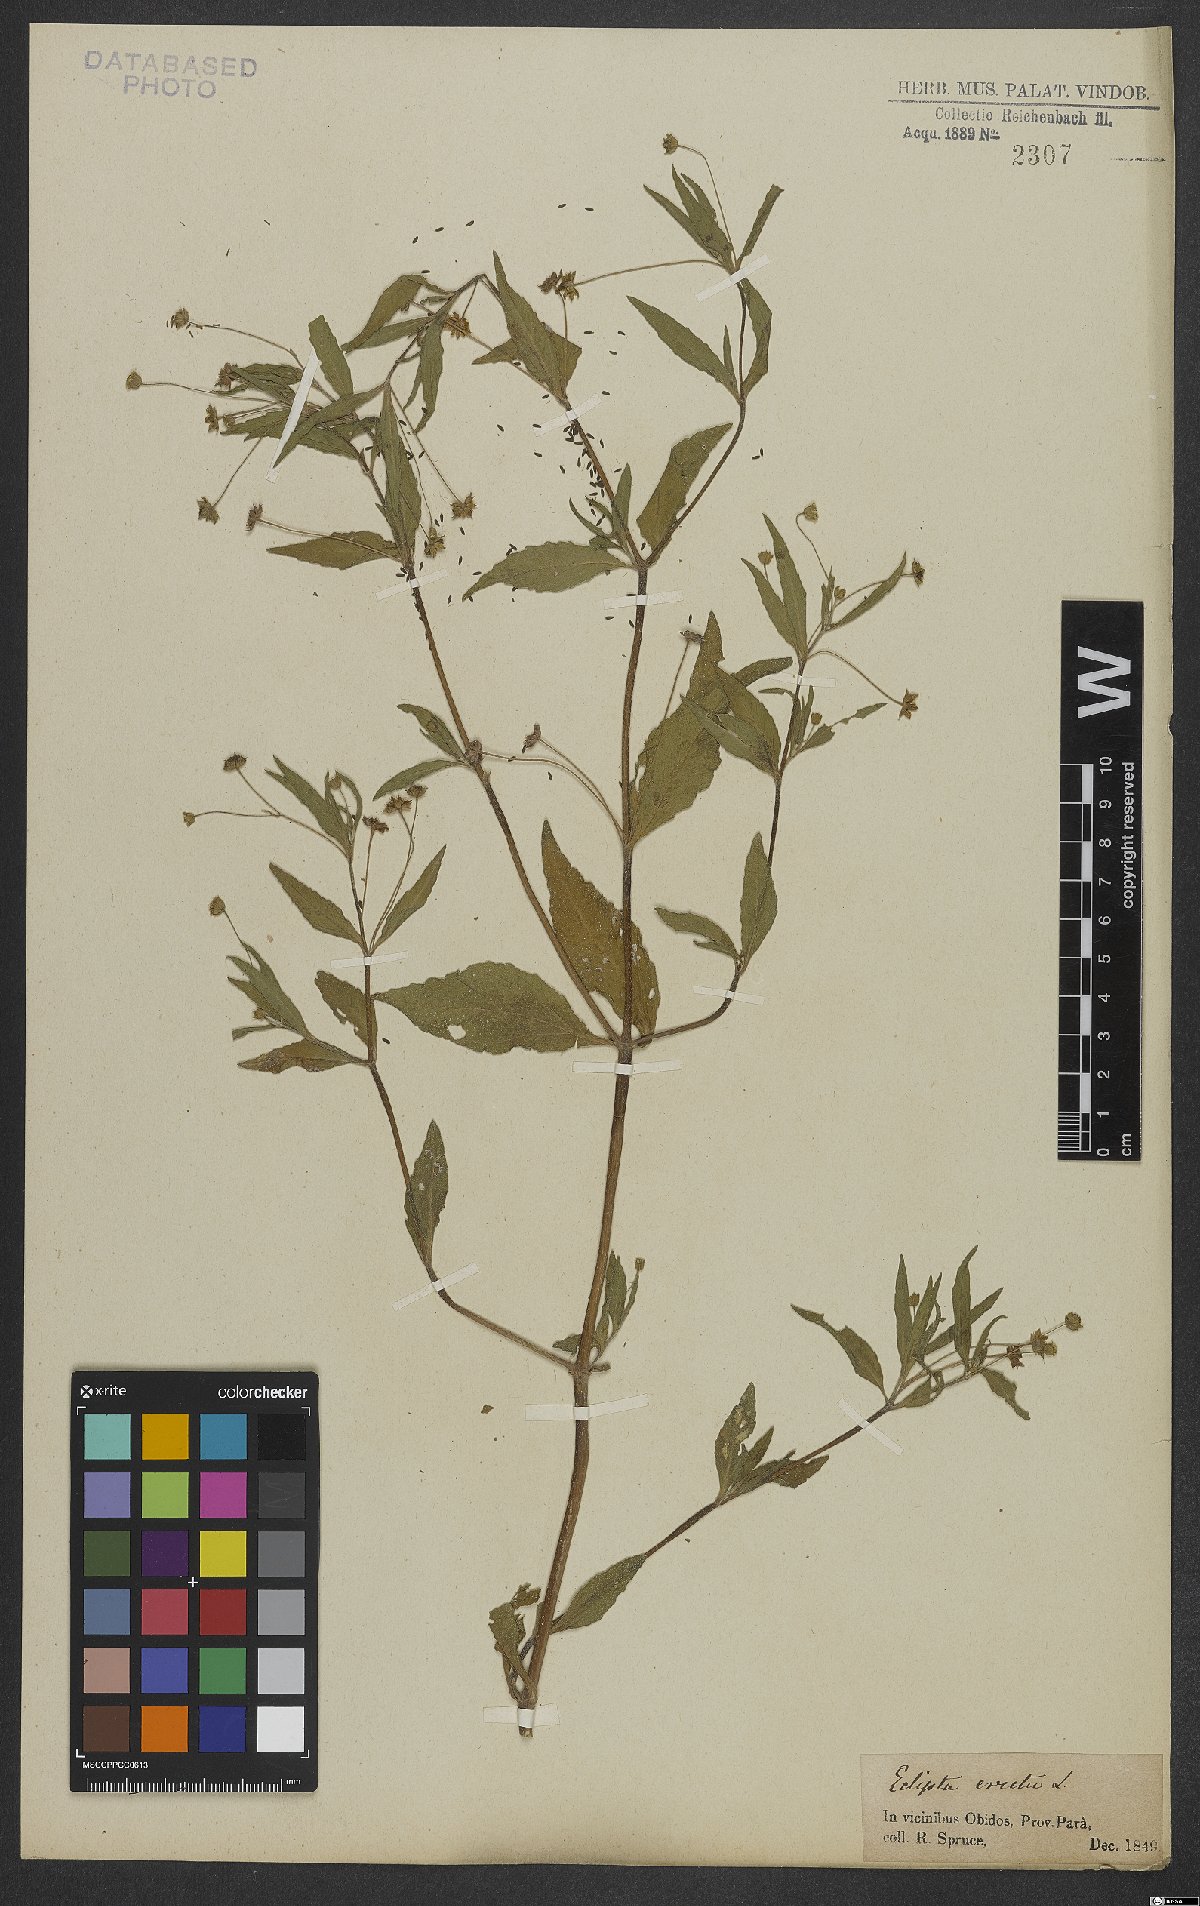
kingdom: Plantae
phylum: Tracheophyta
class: Magnoliopsida
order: Asterales
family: Asteraceae
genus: Eclipta
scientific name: Eclipta alba
